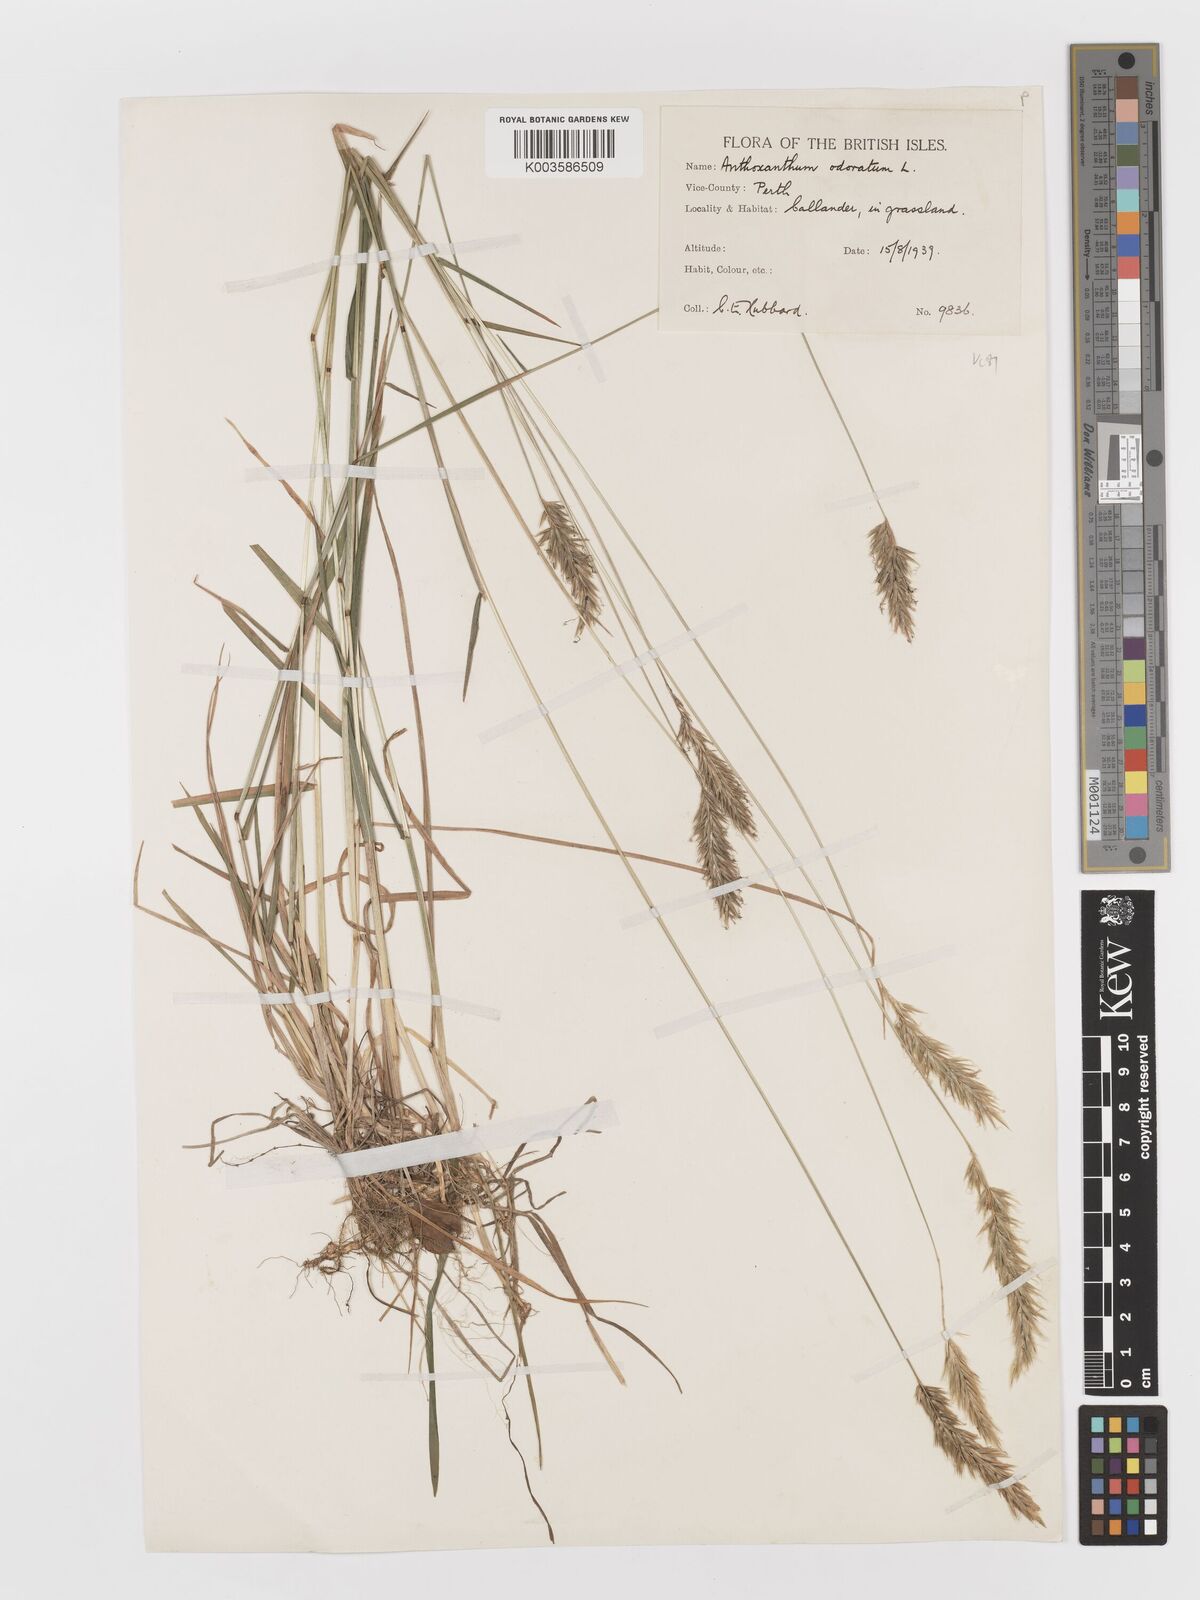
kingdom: Plantae
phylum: Tracheophyta
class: Liliopsida
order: Poales
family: Poaceae
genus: Anthoxanthum
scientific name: Anthoxanthum odoratum
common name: Sweet vernalgrass
